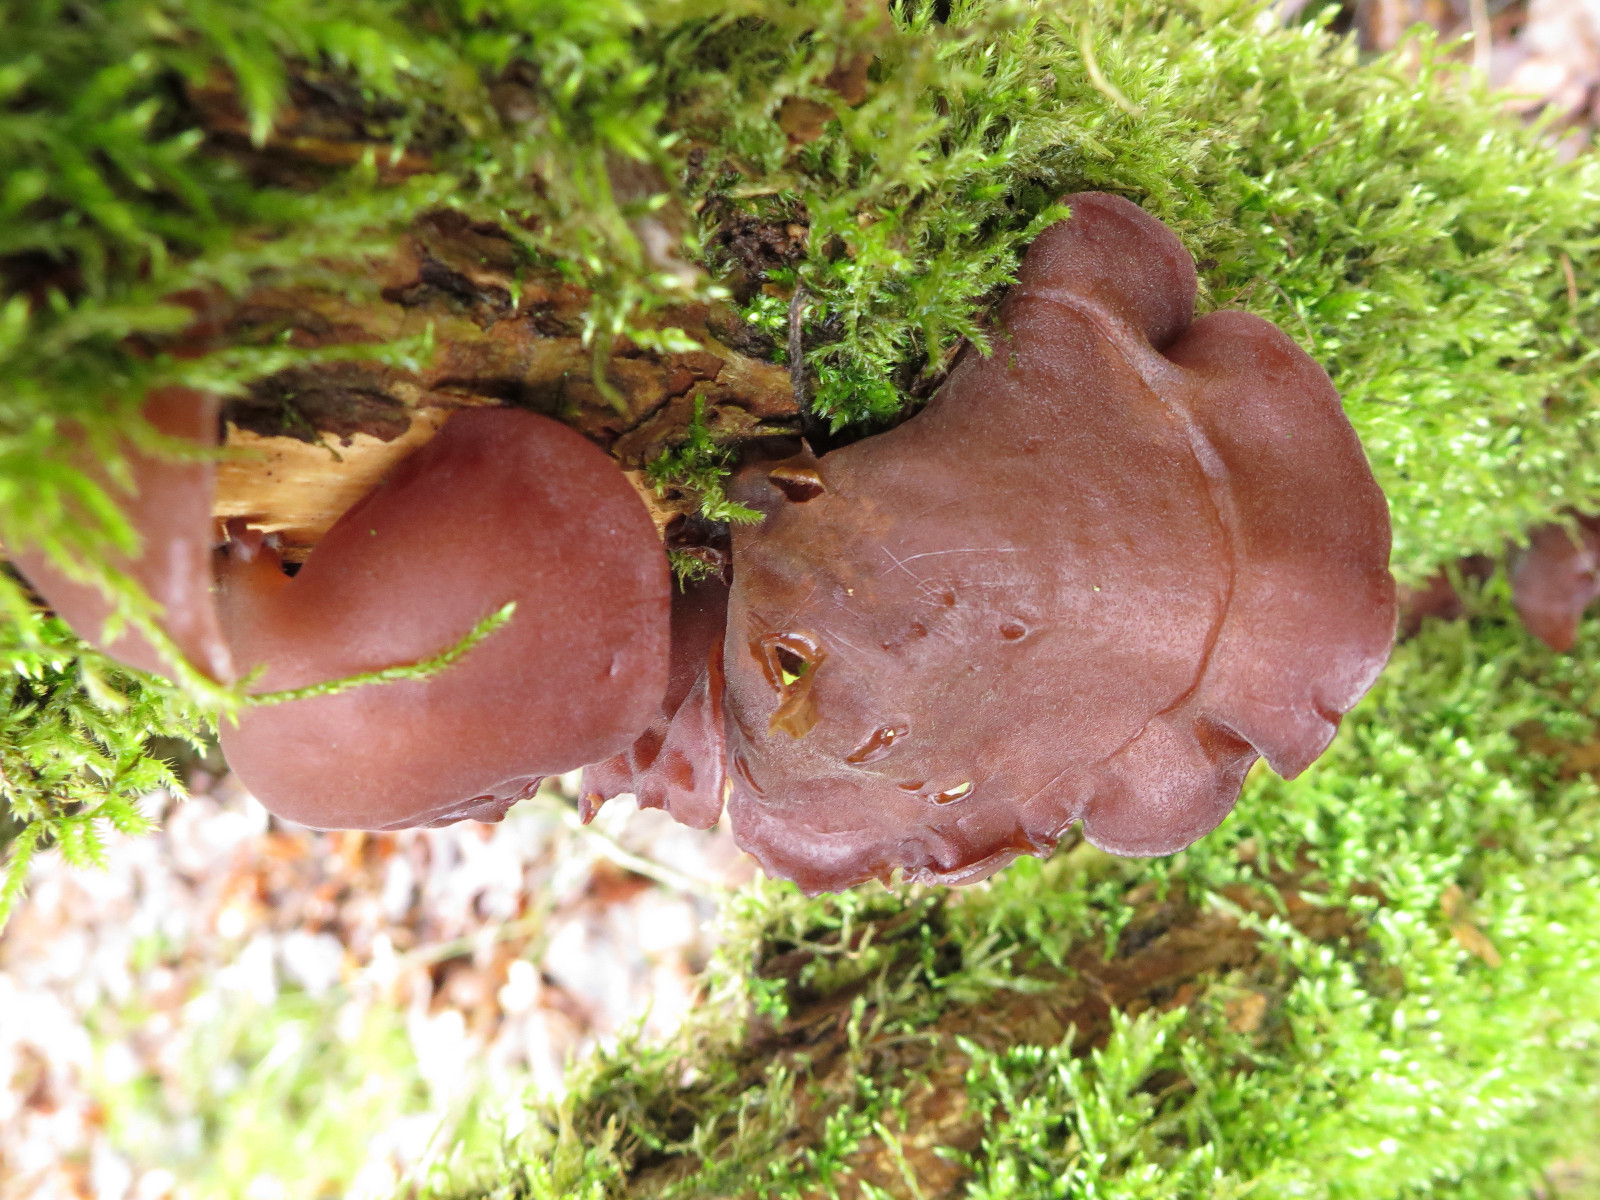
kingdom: Fungi
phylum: Basidiomycota
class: Agaricomycetes
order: Auriculariales
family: Auriculariaceae
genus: Auricularia
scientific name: Auricularia auricula-judae
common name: almindelig judasøre
